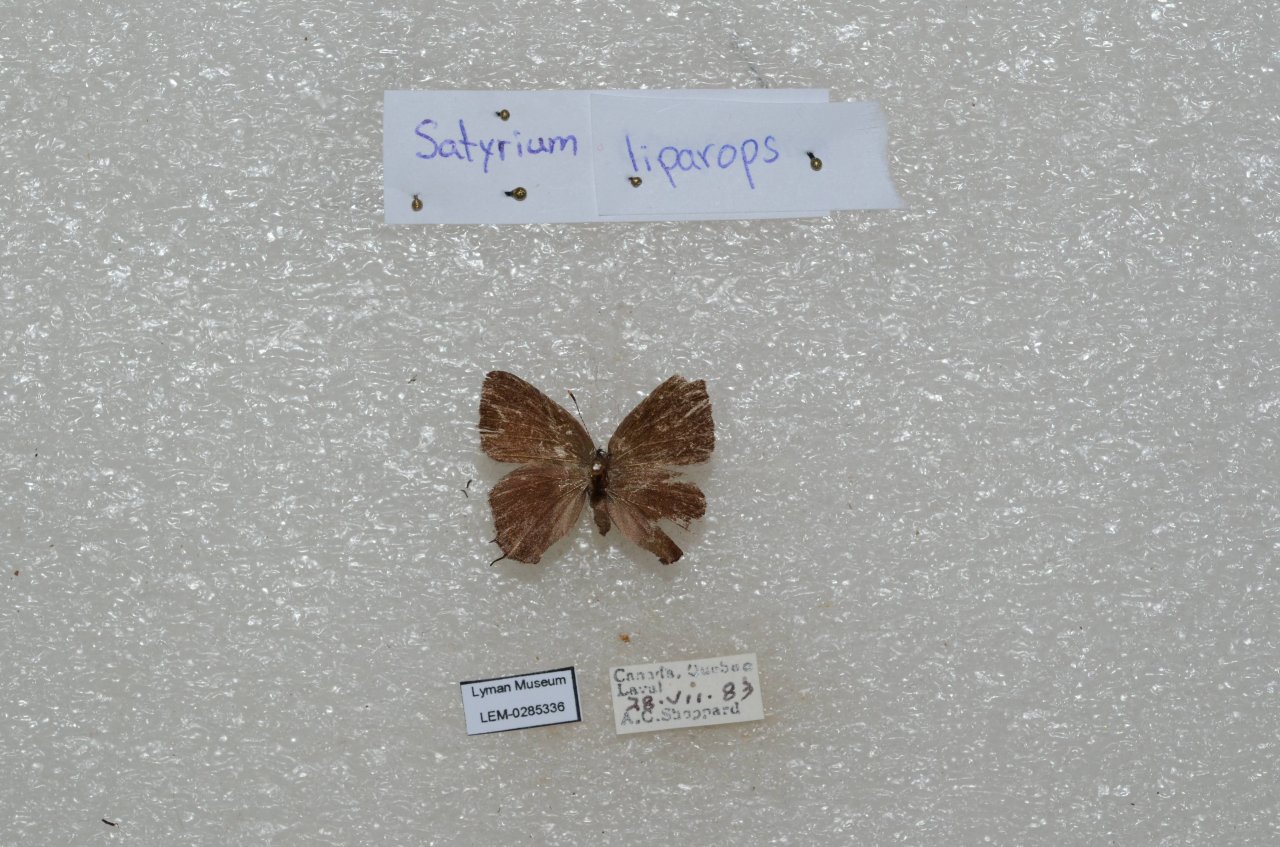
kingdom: Animalia
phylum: Arthropoda
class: Insecta
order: Lepidoptera
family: Lycaenidae
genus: Satyrium
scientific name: Satyrium liparops
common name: Striped Hairstreak
